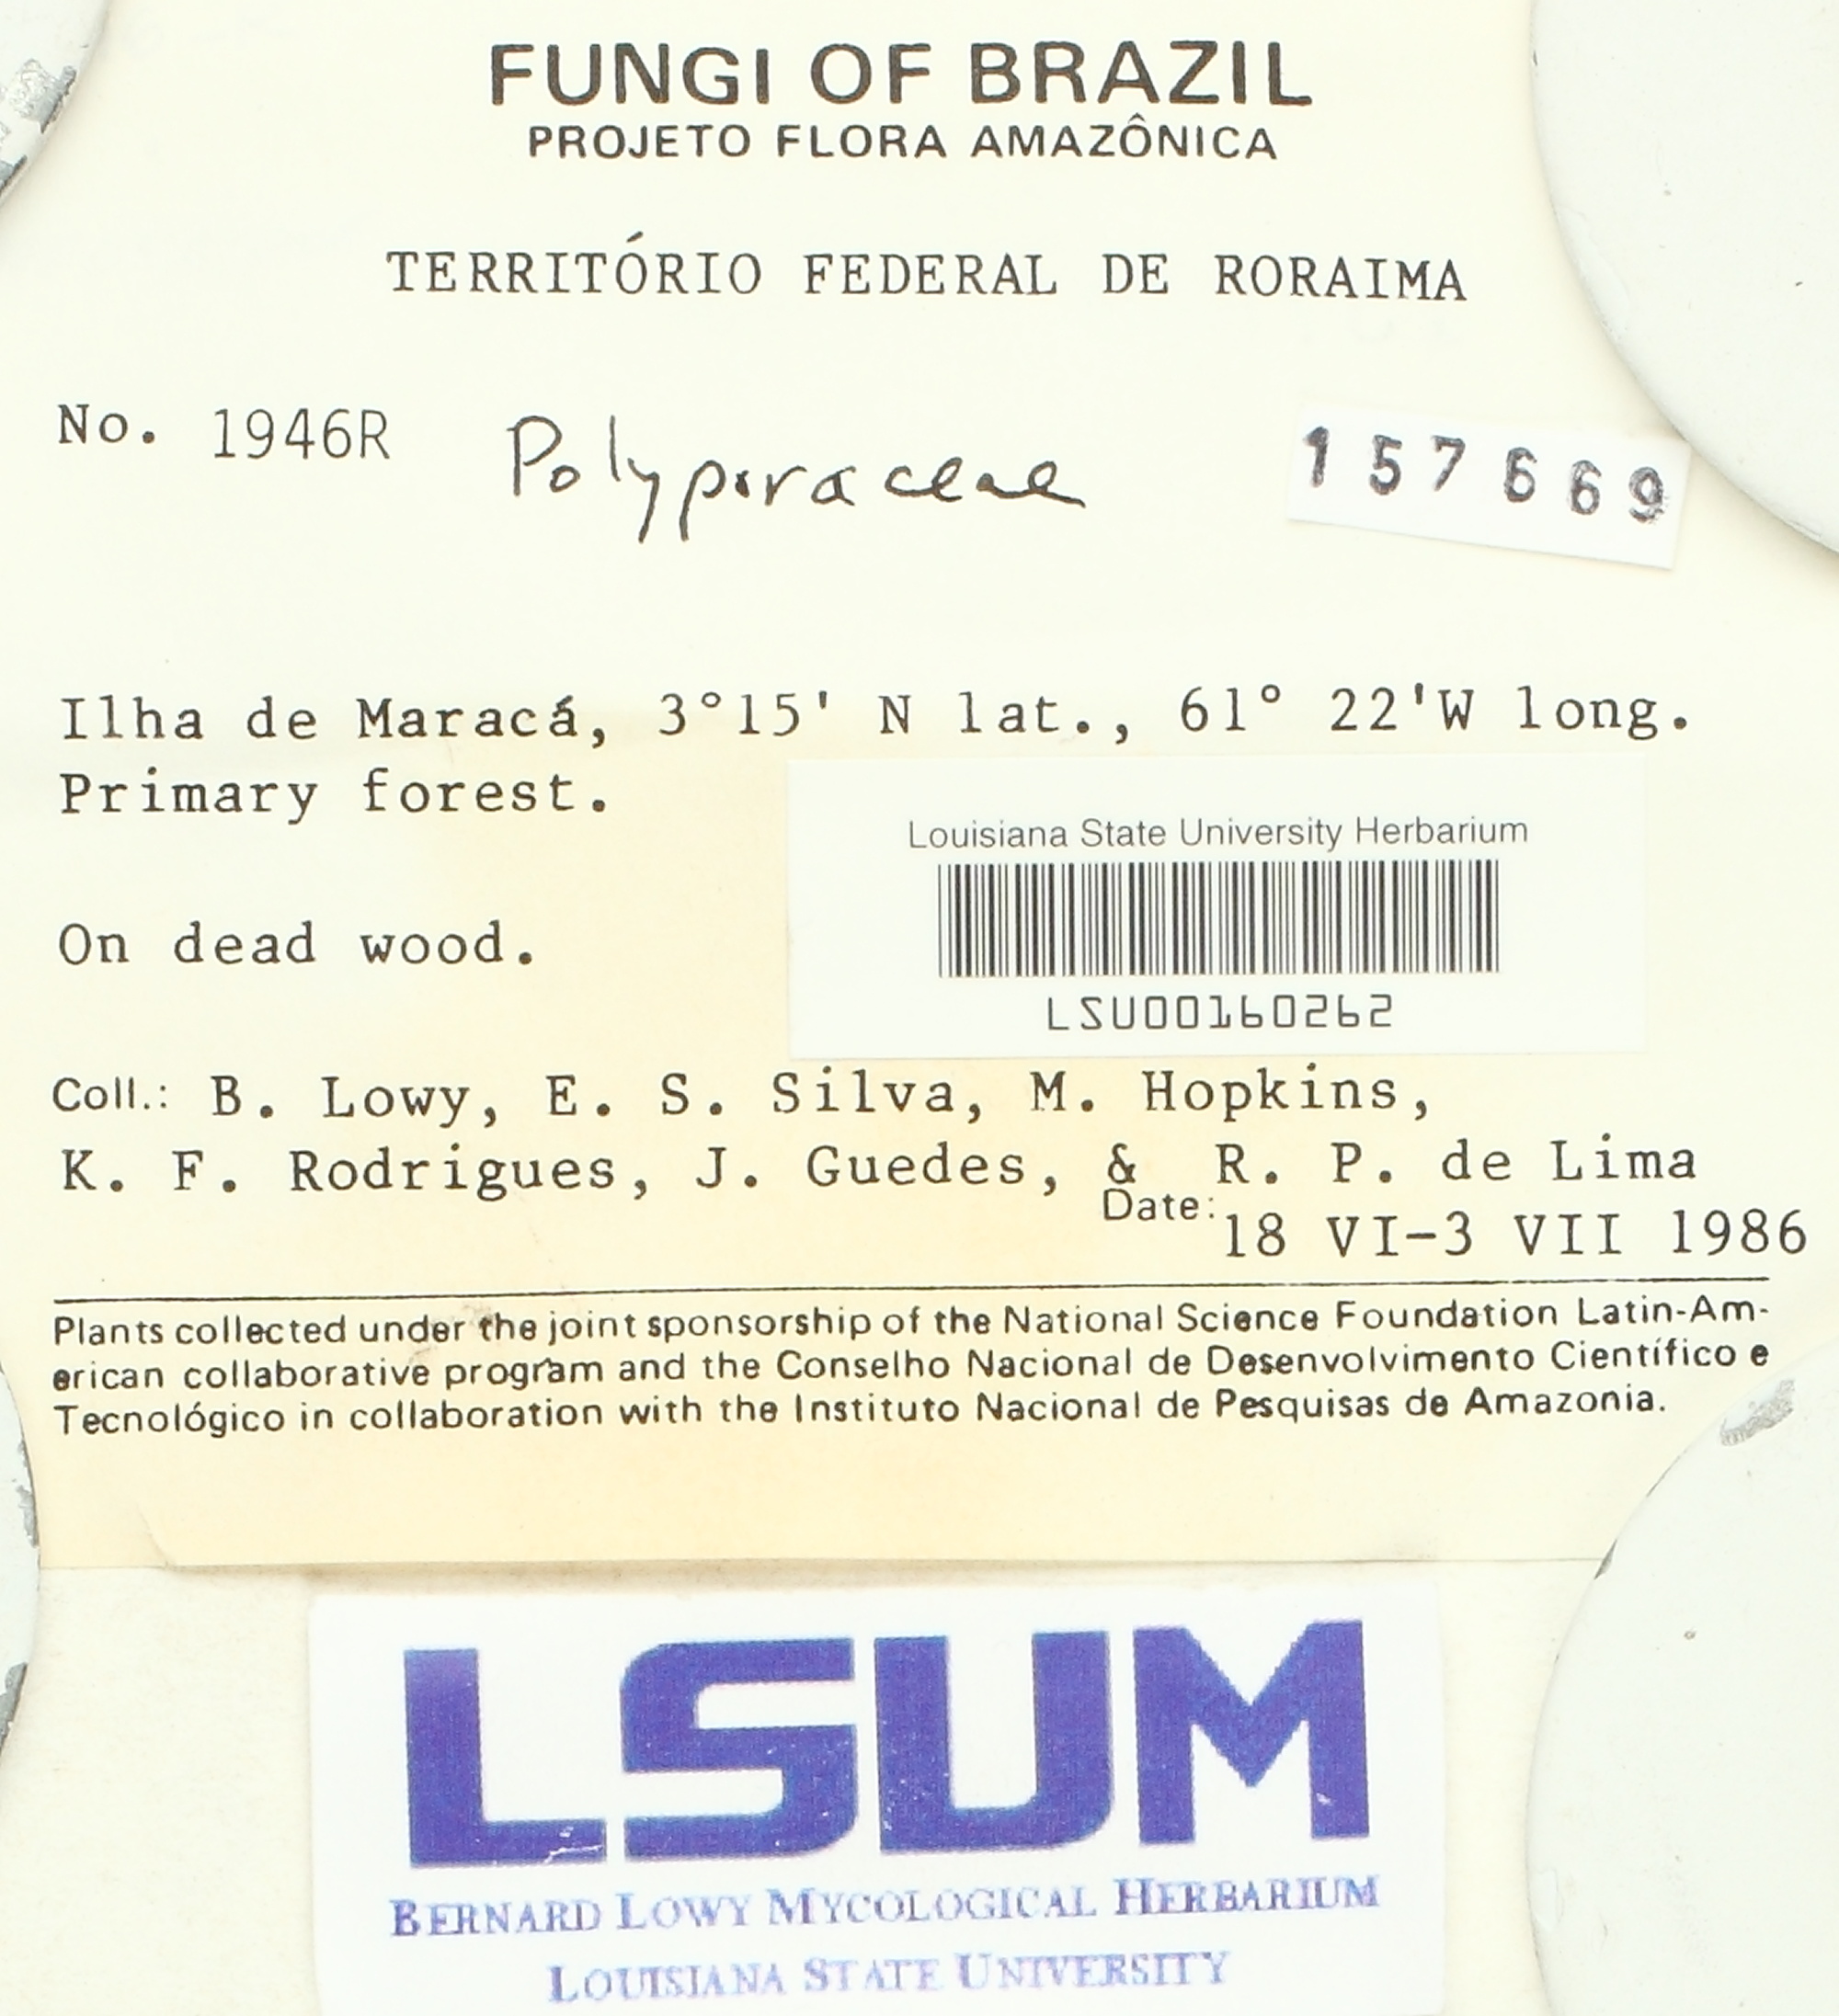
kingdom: Fungi
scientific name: Fungi
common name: Fungi
